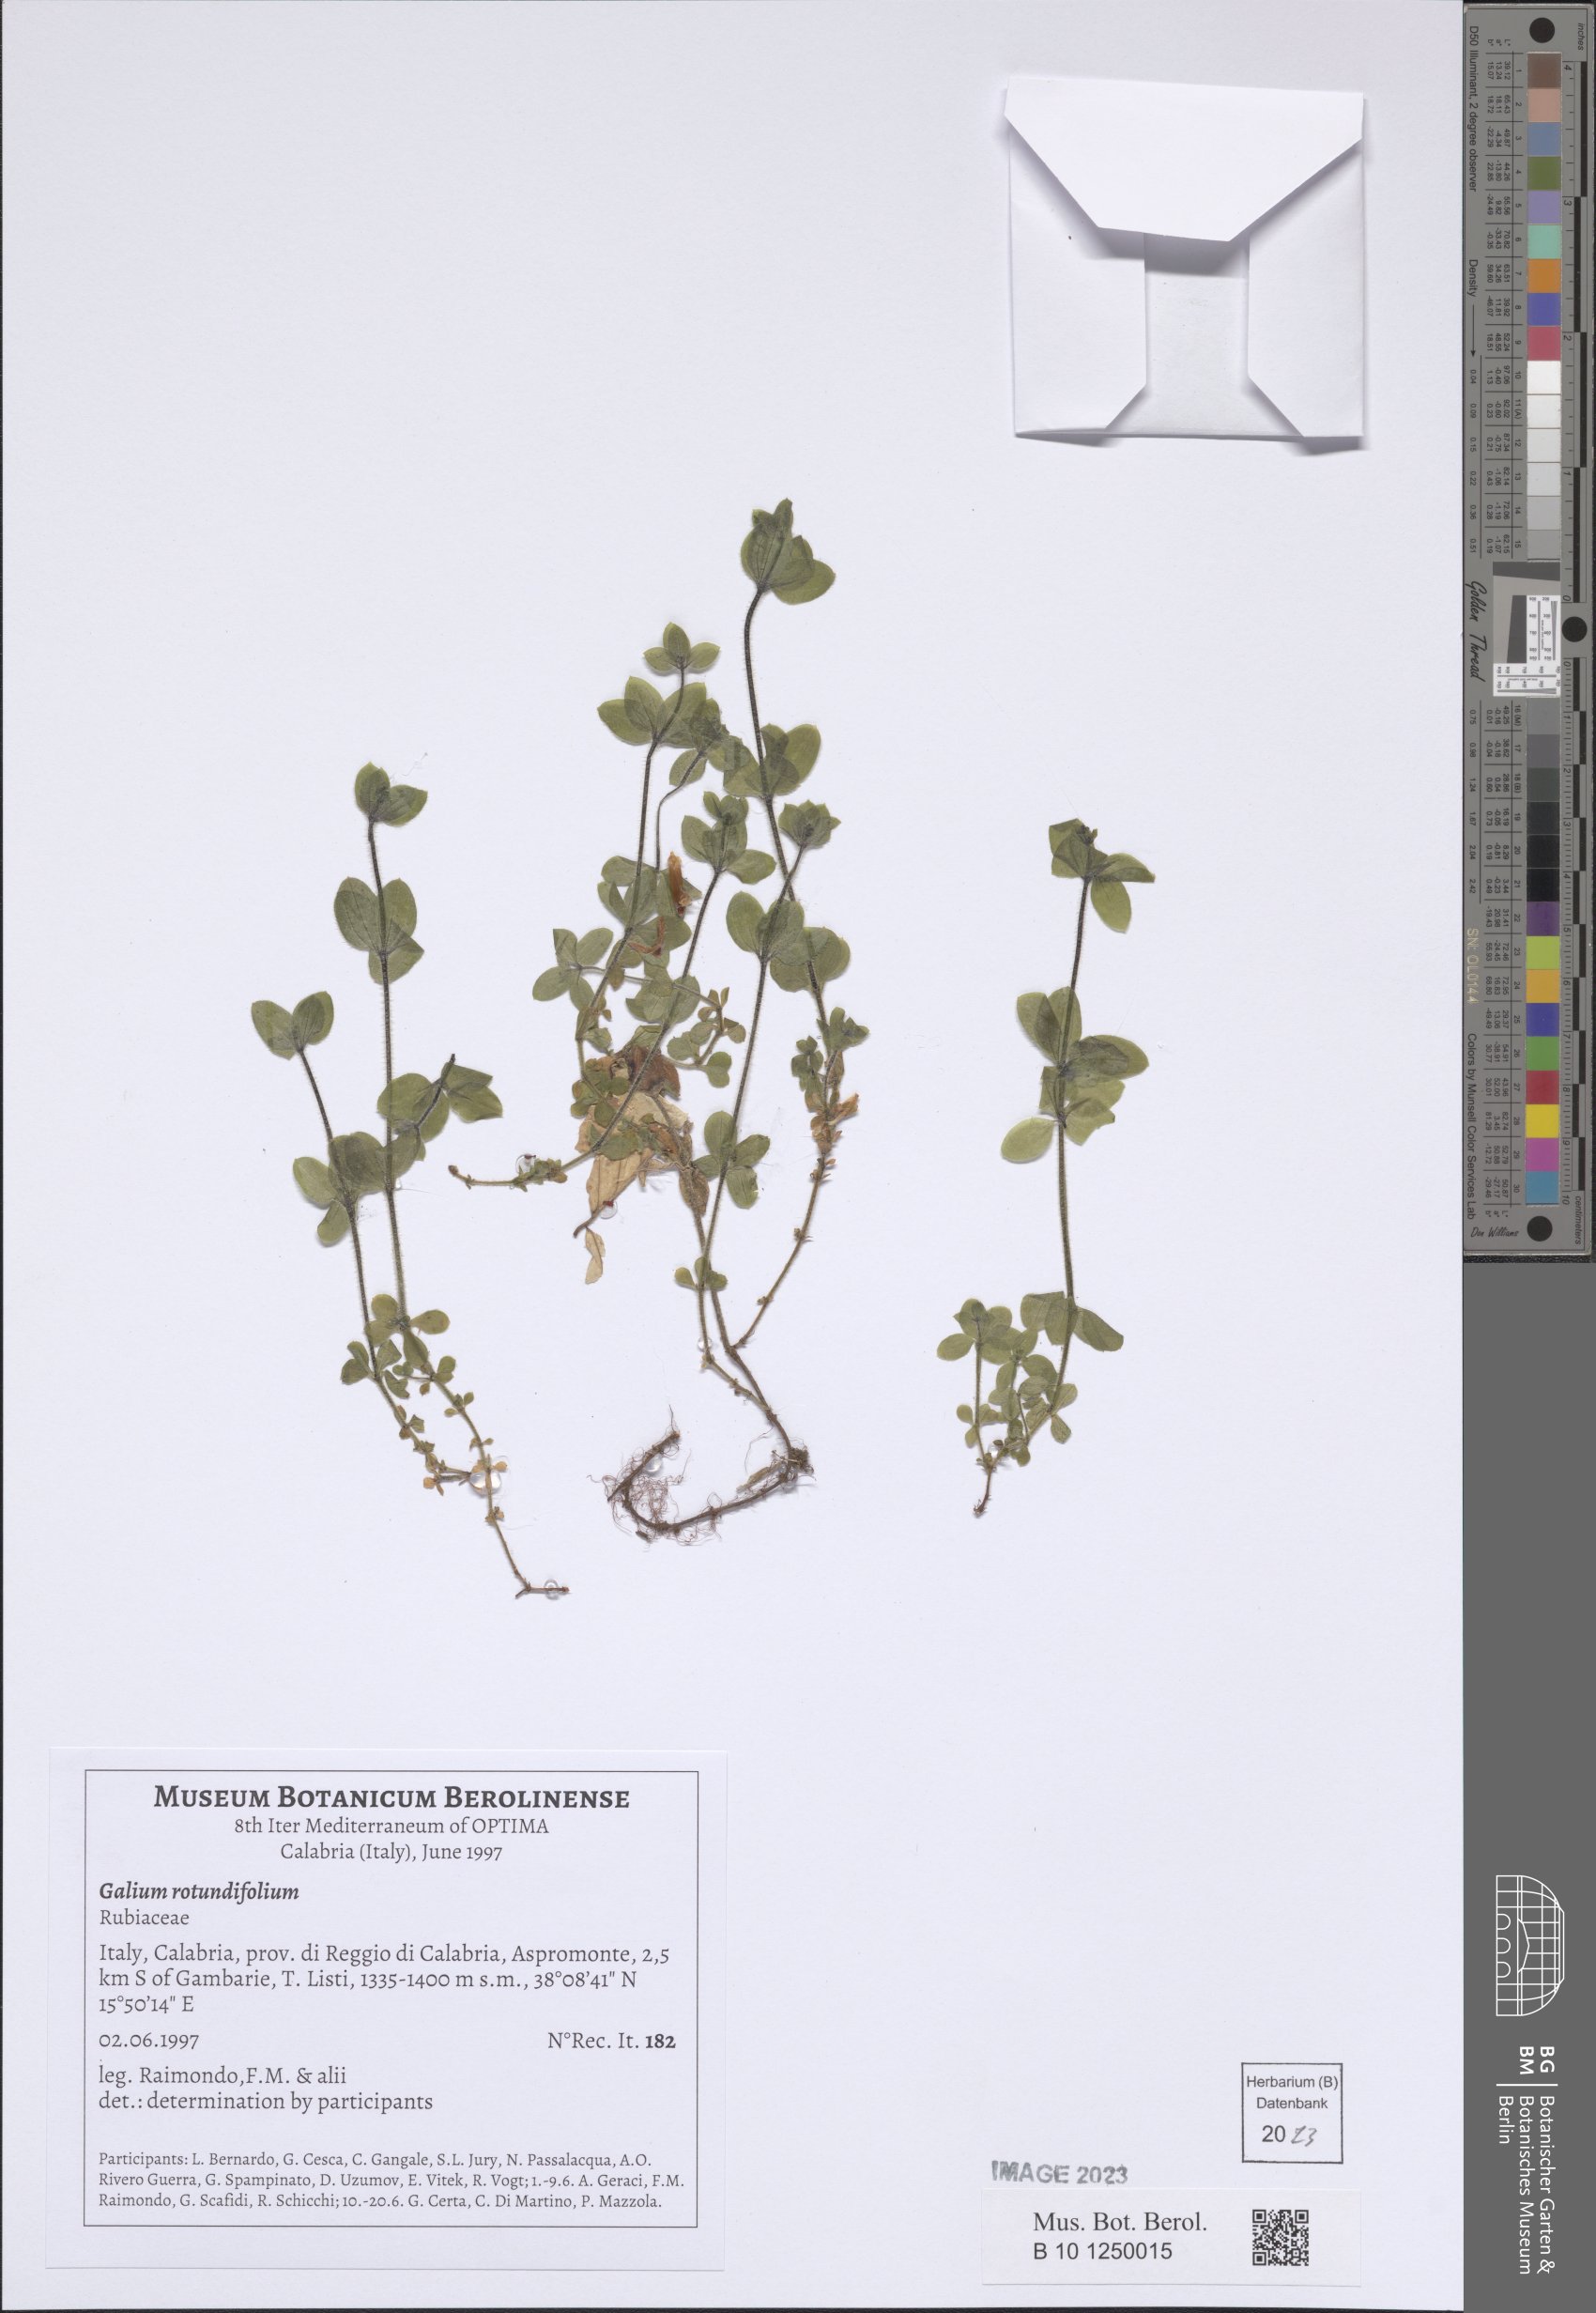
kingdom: Plantae
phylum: Tracheophyta
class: Magnoliopsida
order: Gentianales
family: Rubiaceae
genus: Galium
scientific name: Galium rotundifolium
